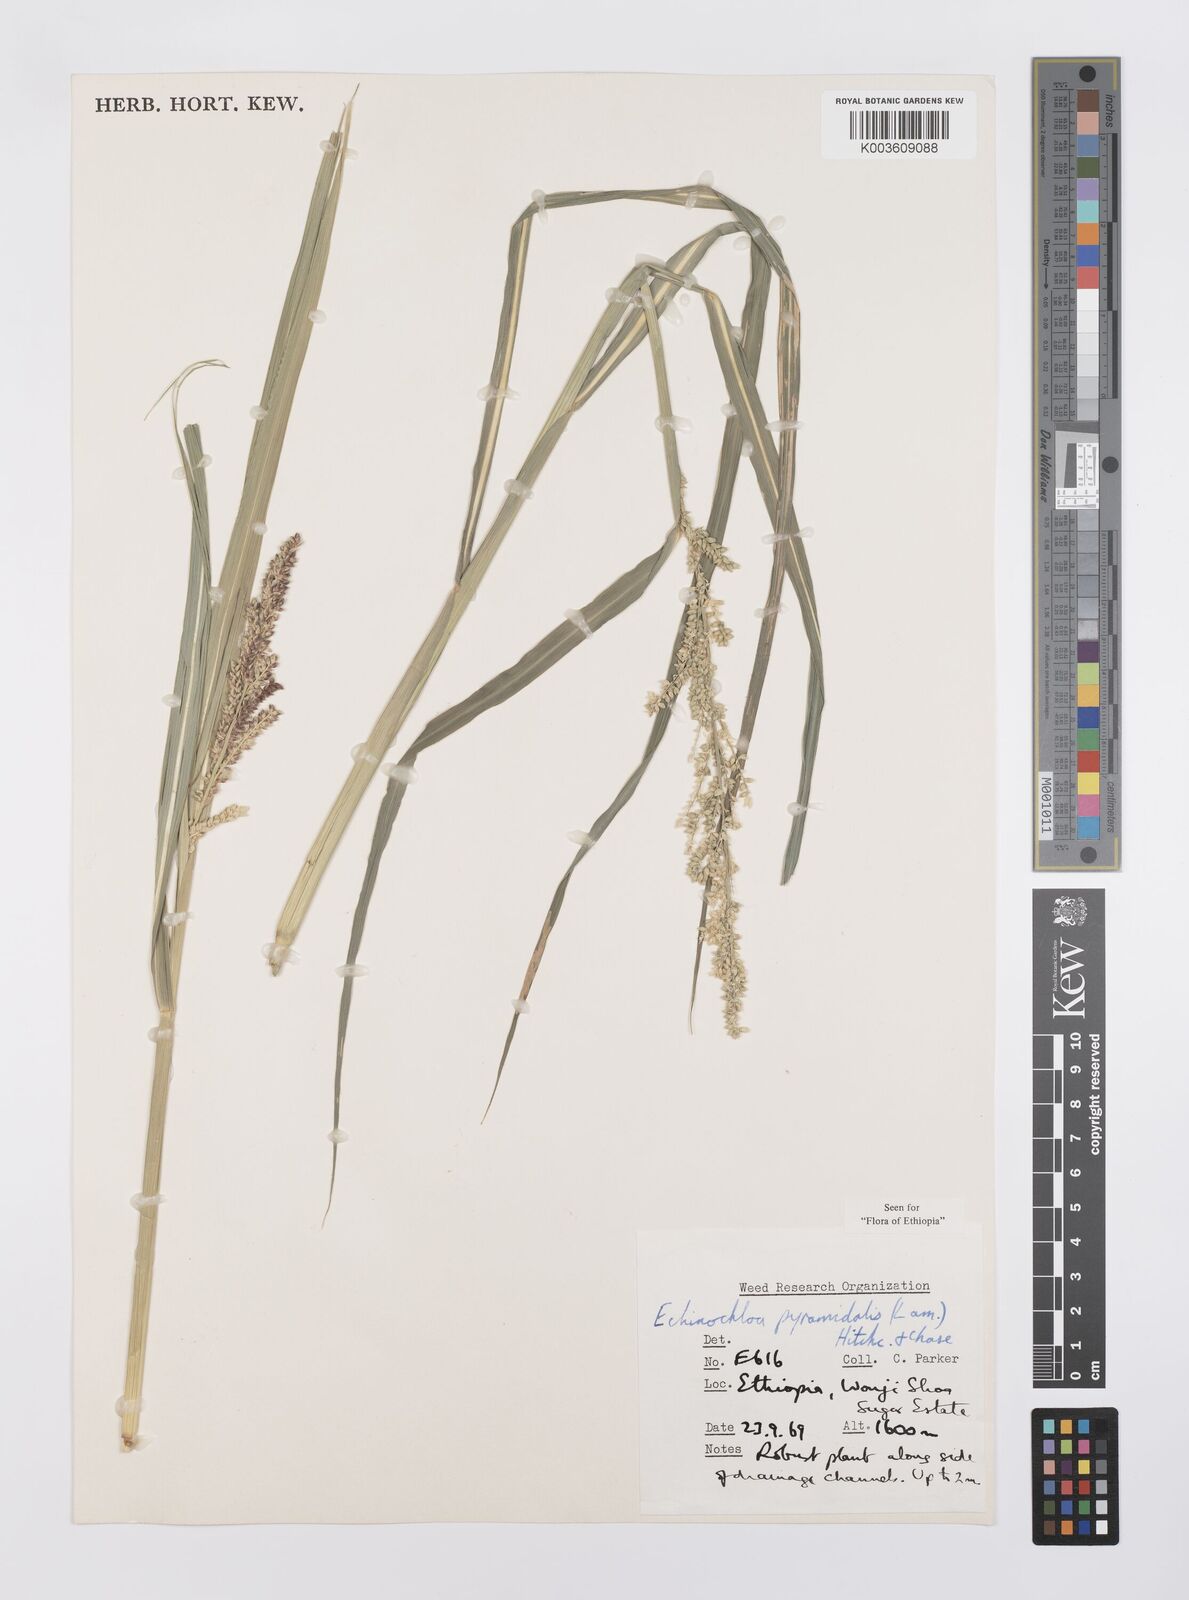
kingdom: Plantae
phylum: Tracheophyta
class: Liliopsida
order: Poales
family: Poaceae
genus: Echinochloa
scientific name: Echinochloa pyramidalis
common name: Antelope grass
